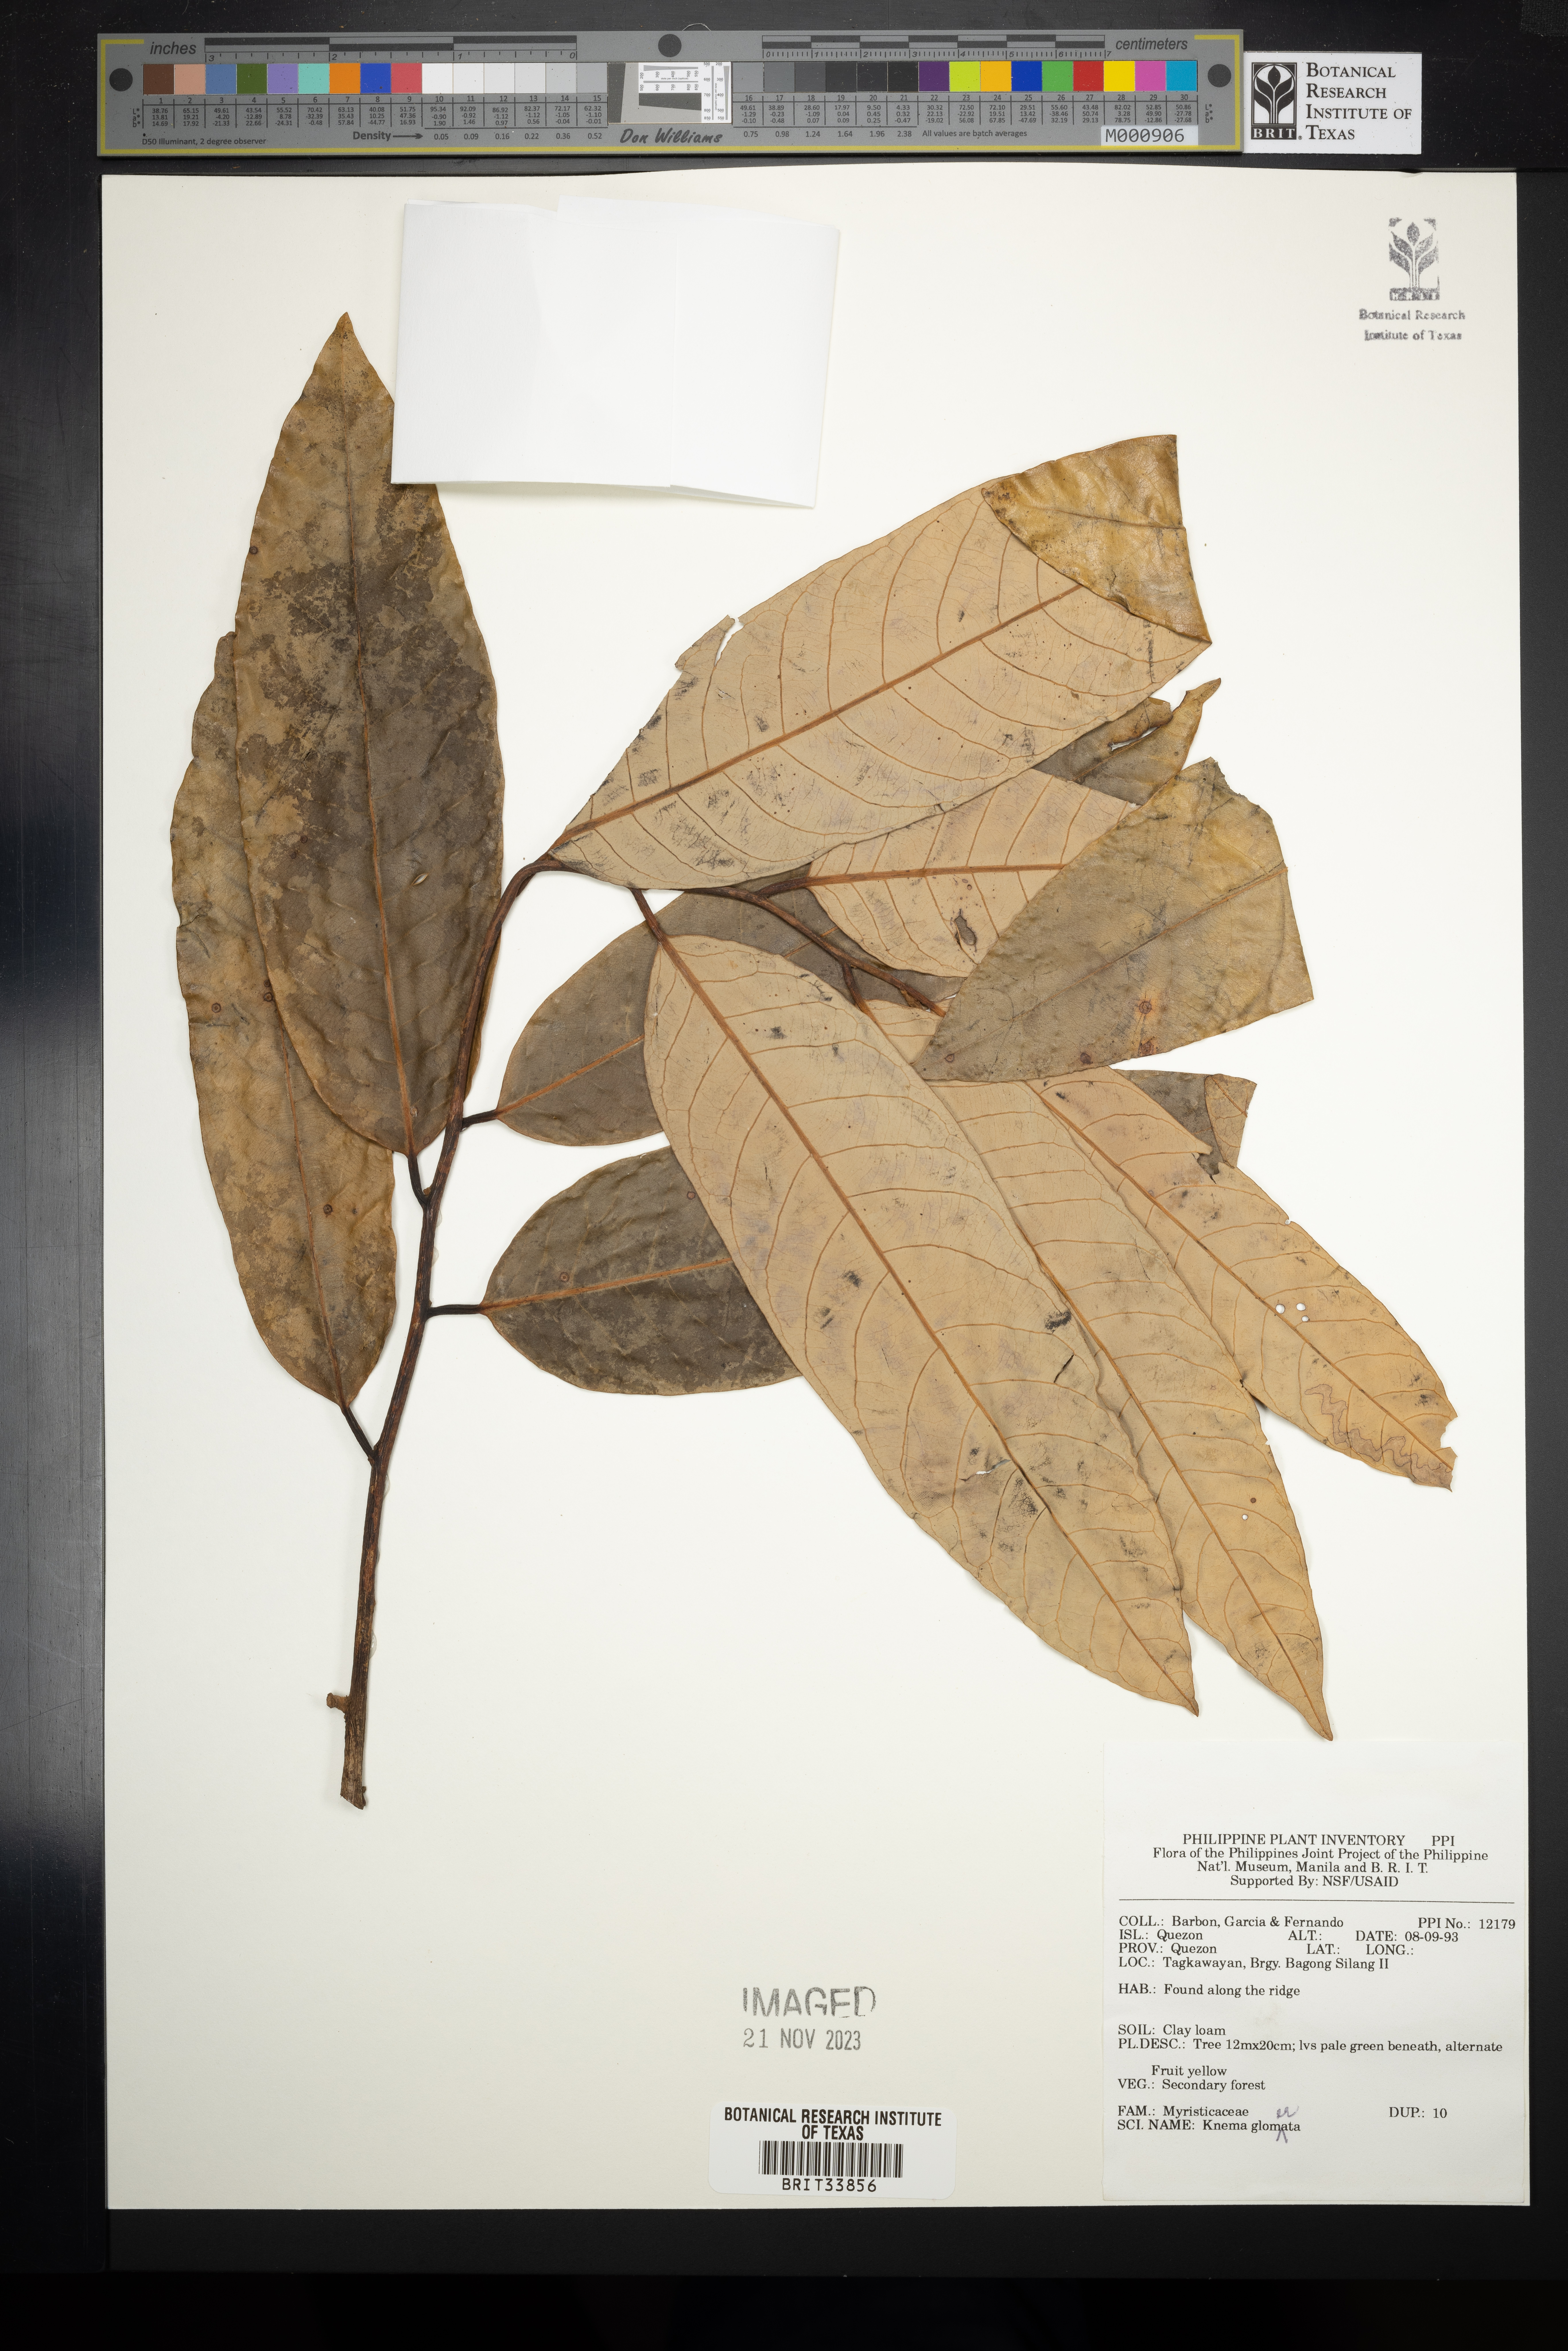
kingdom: Plantae
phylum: Tracheophyta
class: Magnoliopsida
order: Magnoliales
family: Myristicaceae
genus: Knema
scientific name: Knema glomerata
